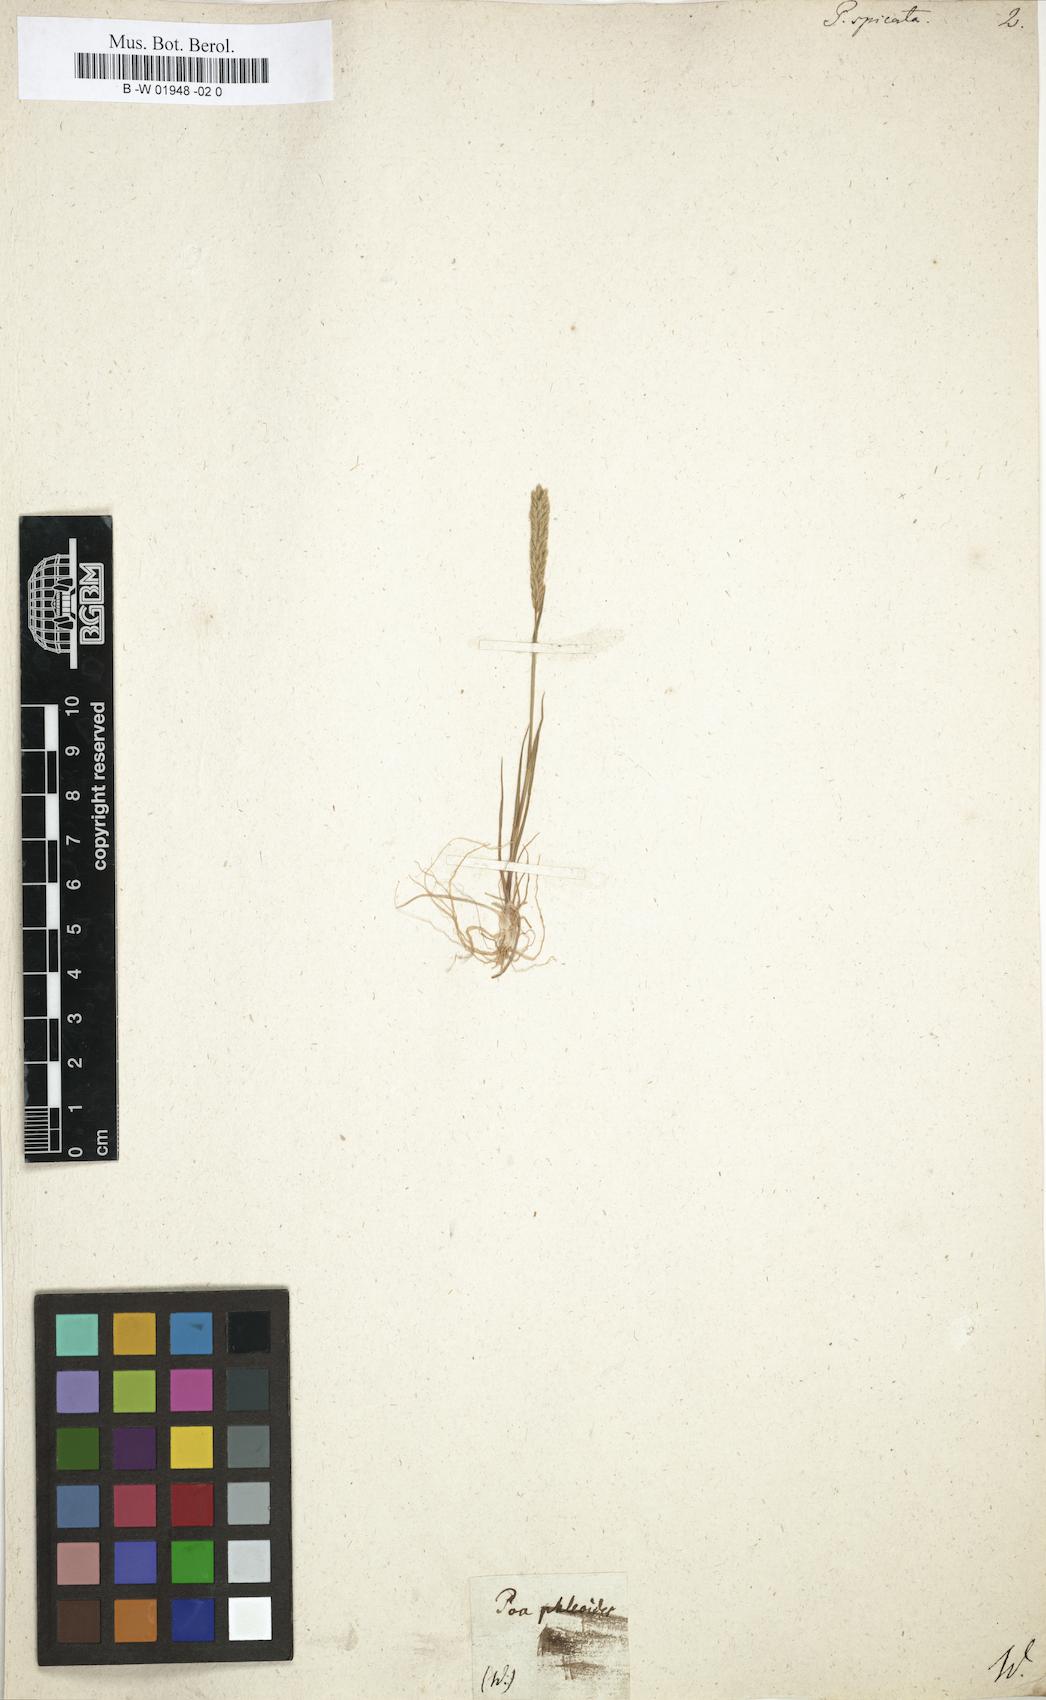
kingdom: Plantae
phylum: Tracheophyta
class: Liliopsida
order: Poales
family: Poaceae
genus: Poa
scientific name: Poa spicata
